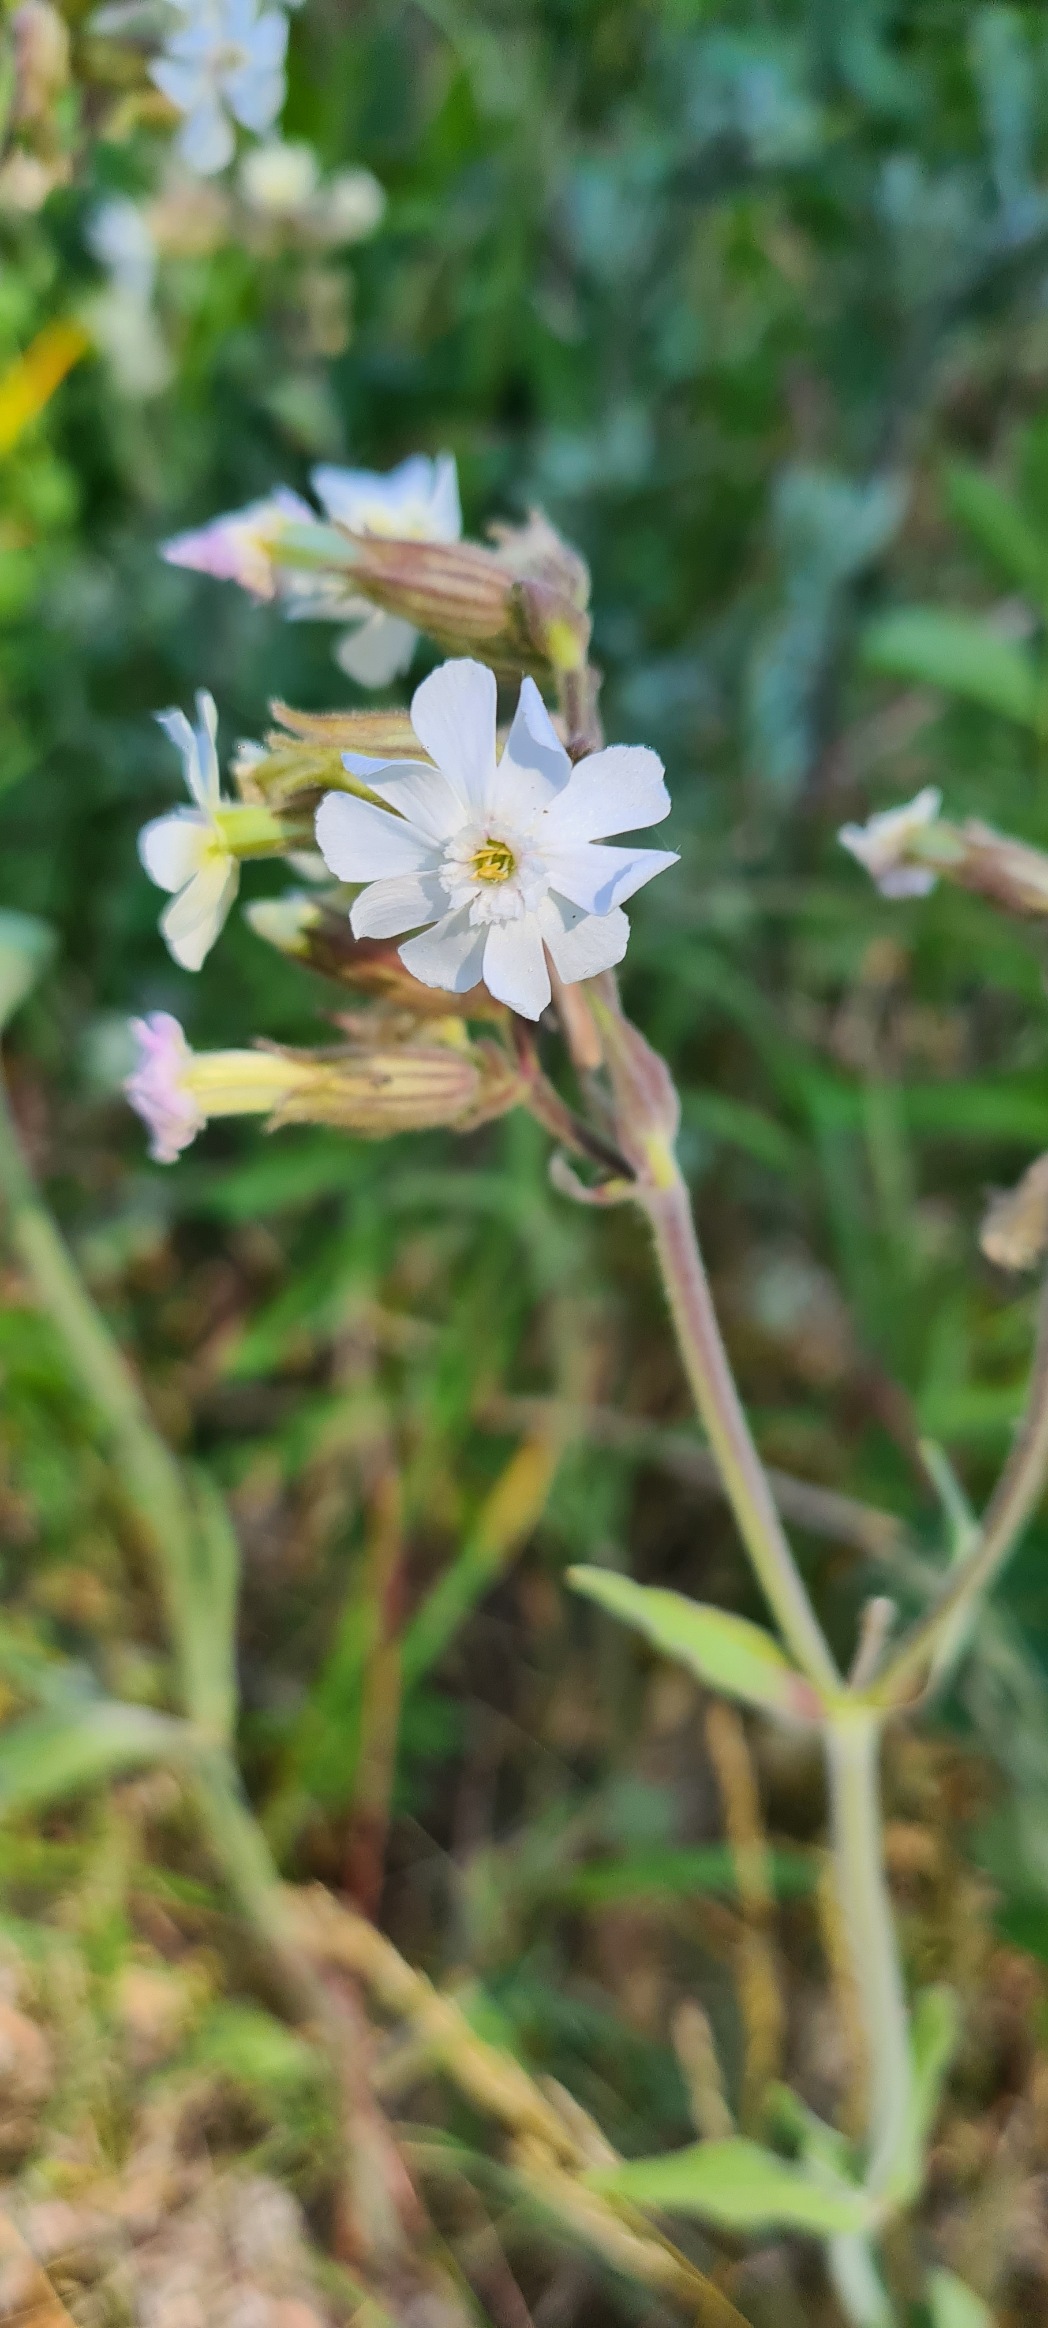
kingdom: Plantae
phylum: Tracheophyta
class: Magnoliopsida
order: Caryophyllales
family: Caryophyllaceae
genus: Silene
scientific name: Silene latifolia
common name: Aftenpragtstjerne
